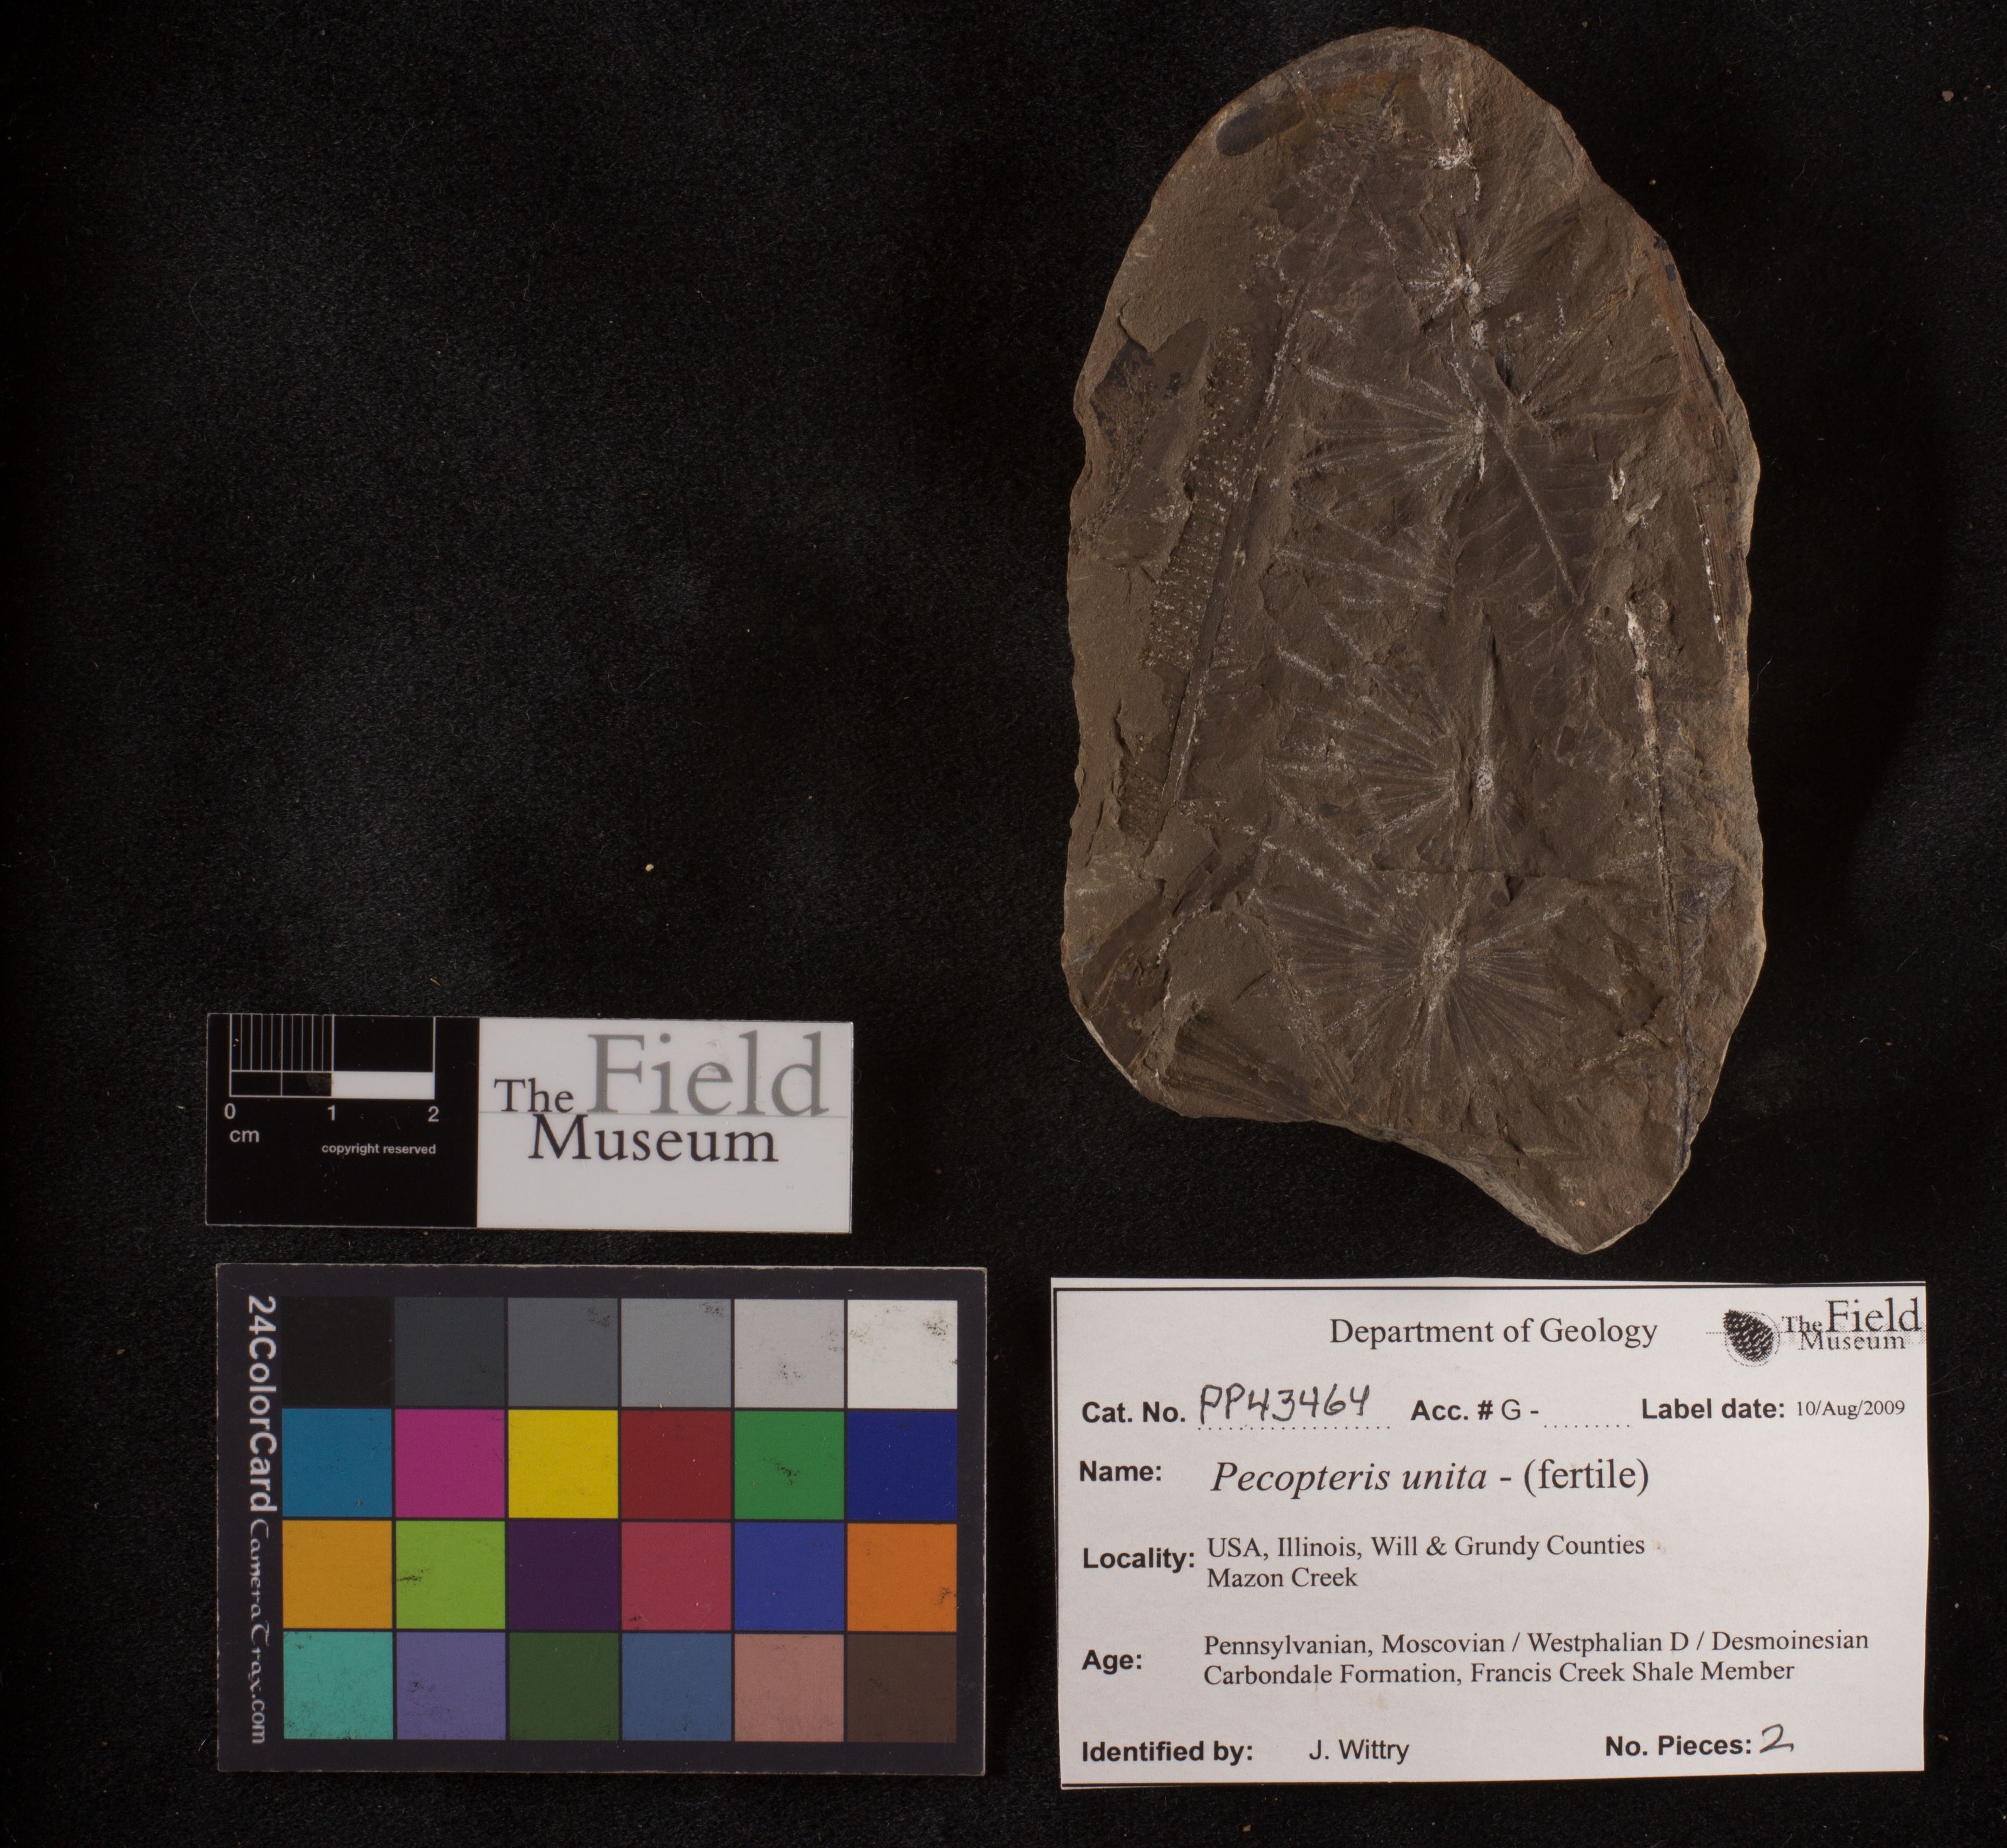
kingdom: Plantae
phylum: Tracheophyta
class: Polypodiopsida
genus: Diplazites
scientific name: Diplazites
